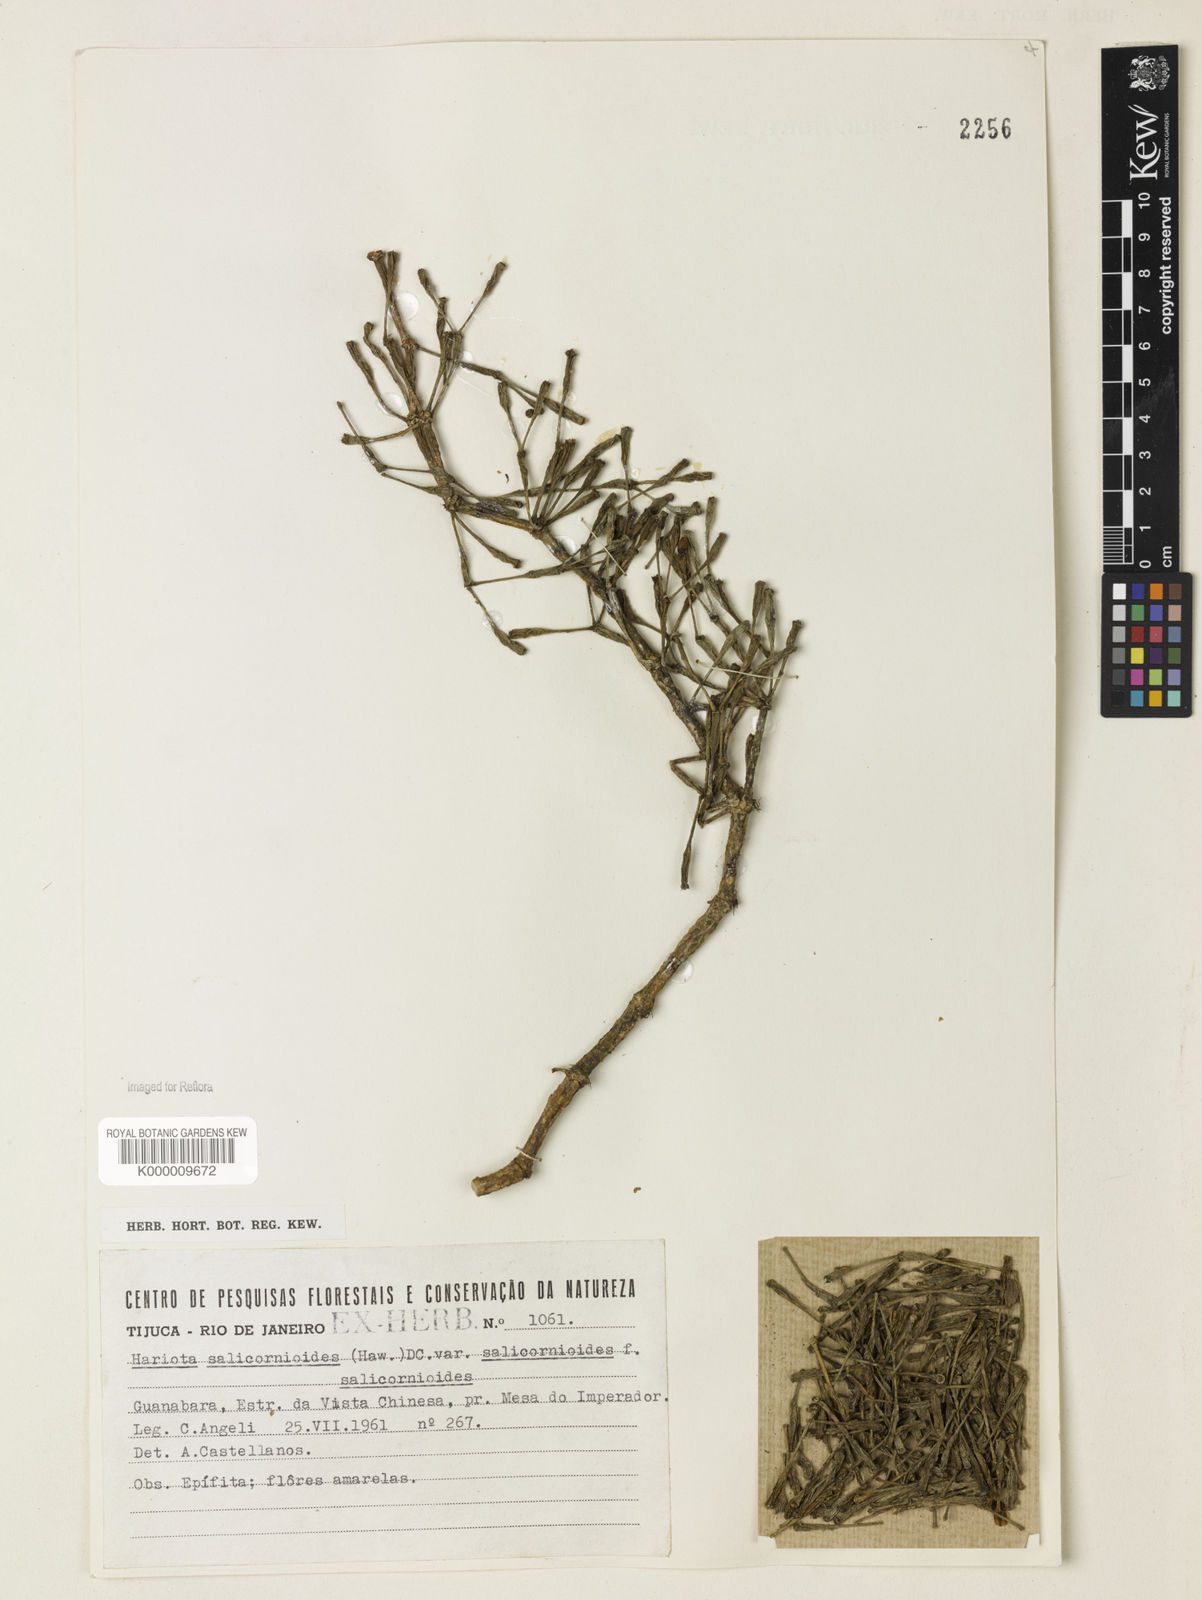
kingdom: Plantae
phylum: Tracheophyta
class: Magnoliopsida
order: Caryophyllales
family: Cactaceae
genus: Hatiora
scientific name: Hatiora
